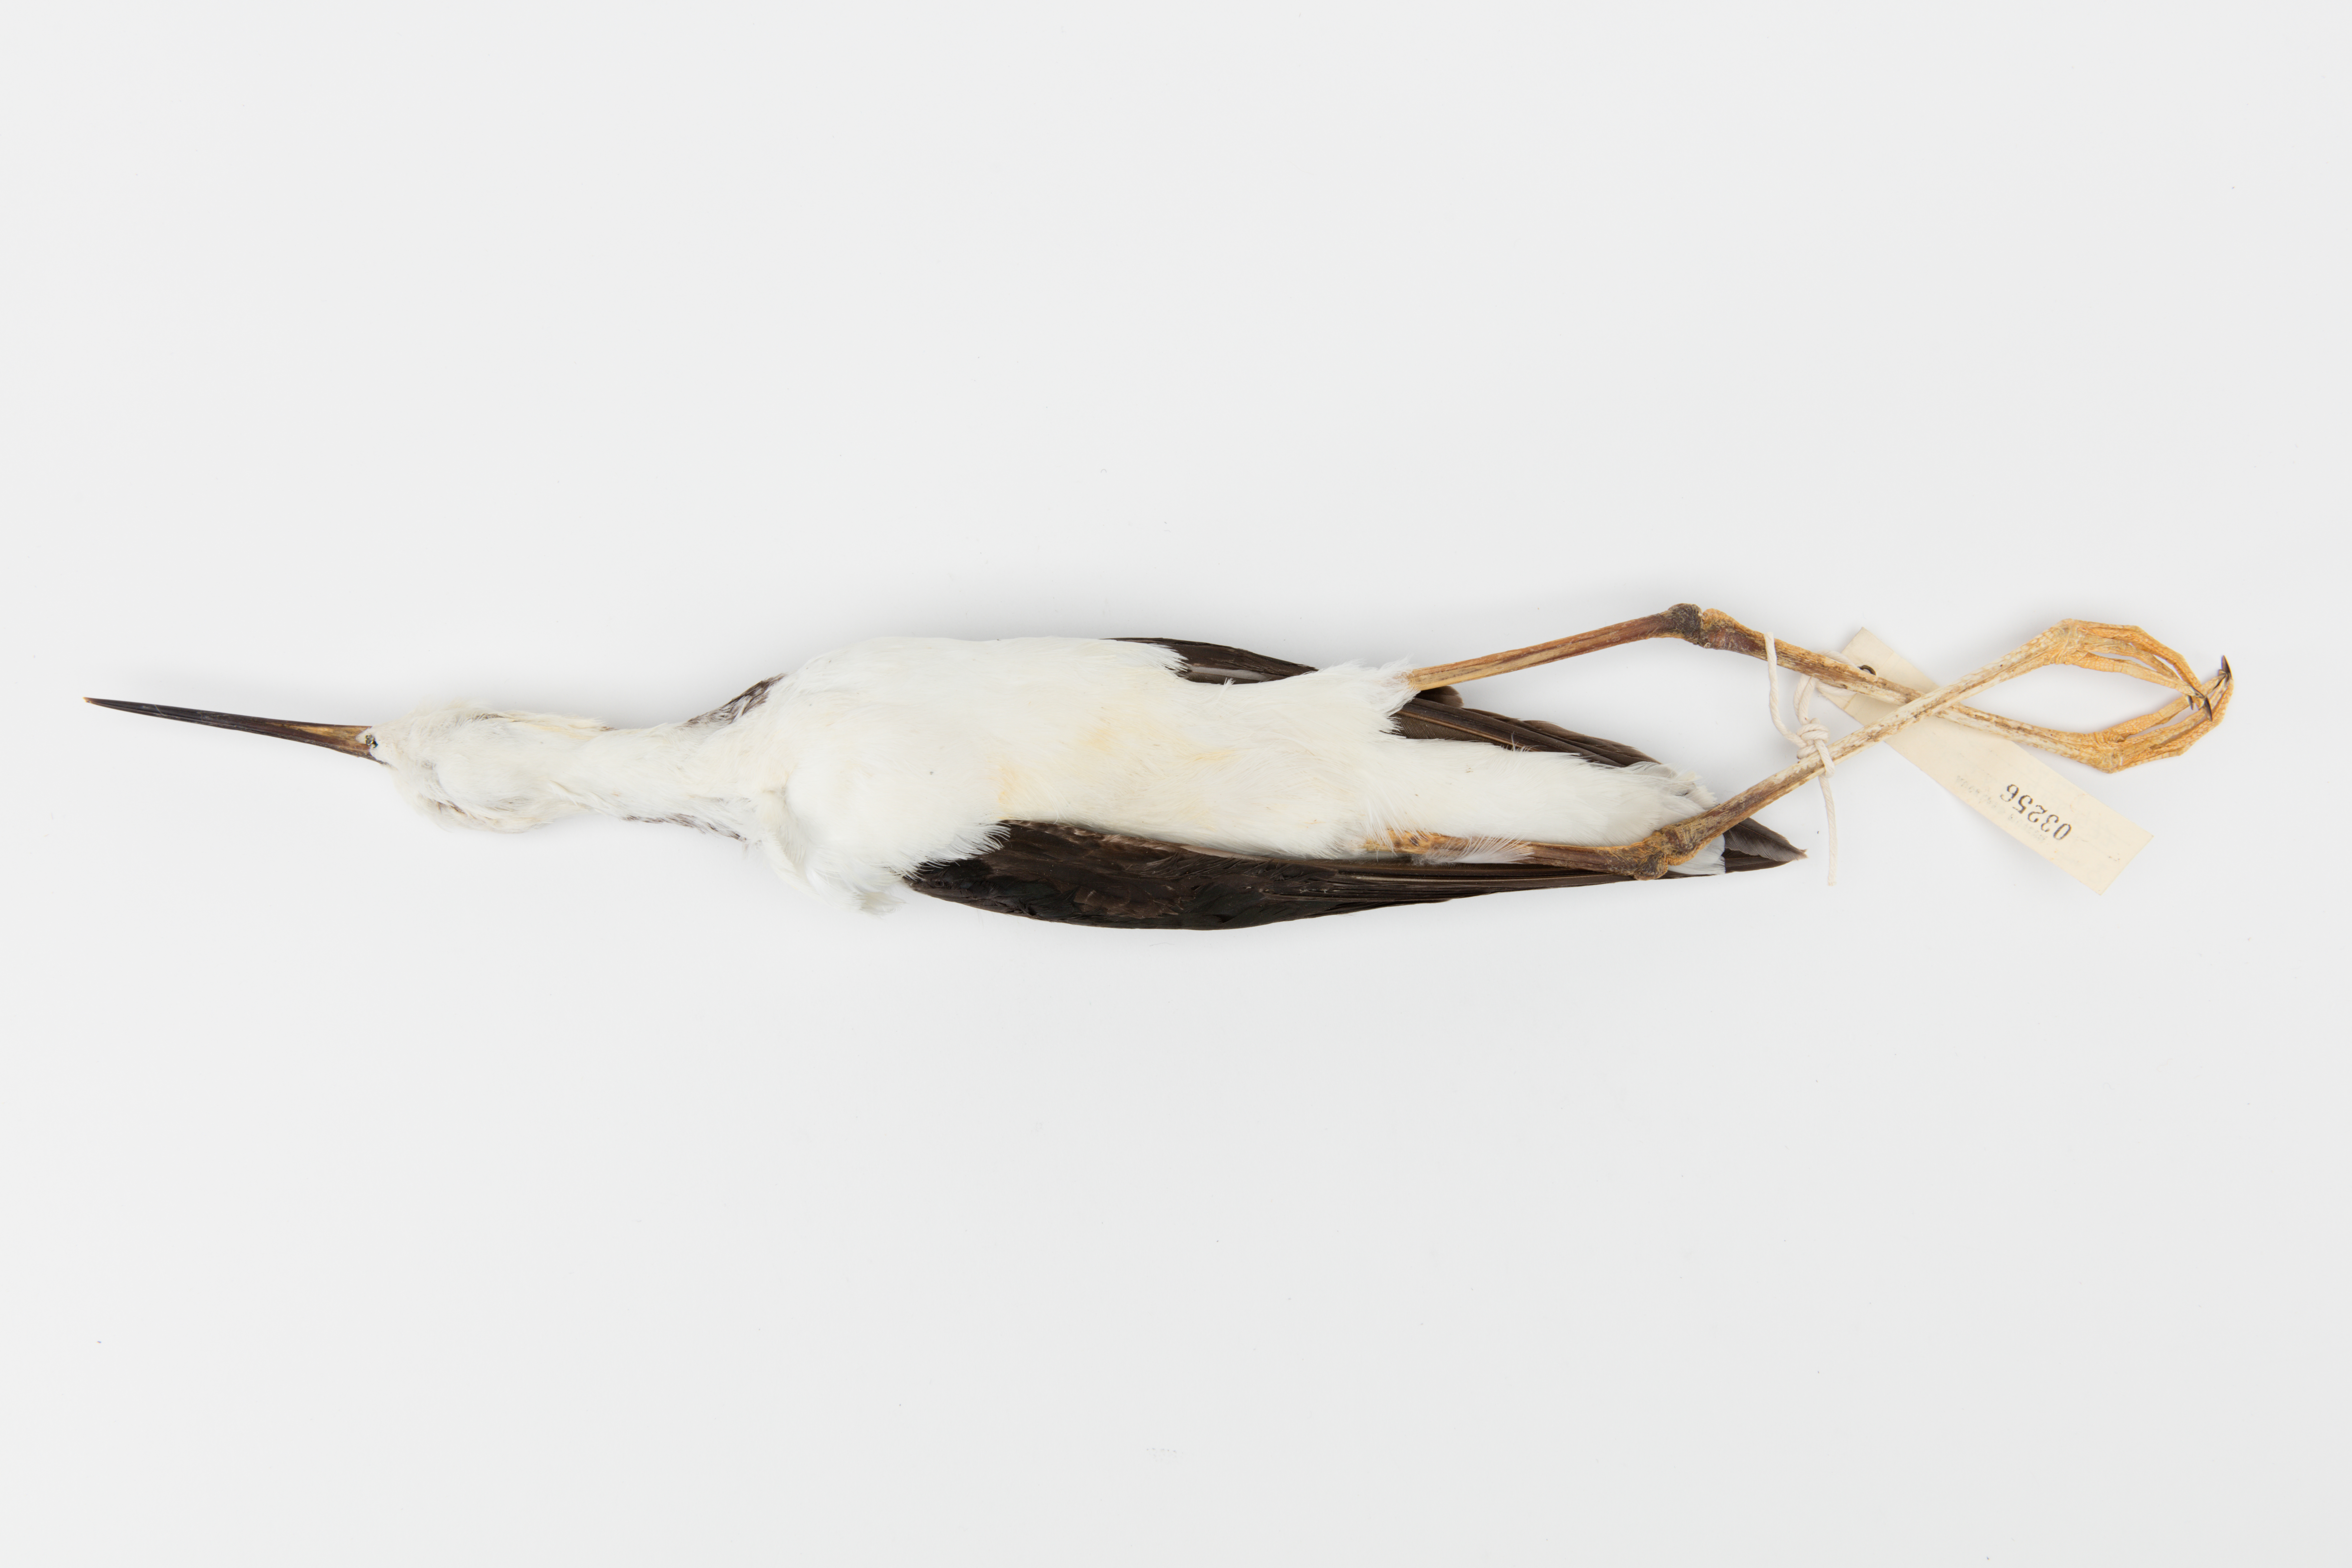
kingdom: Animalia
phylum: Chordata
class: Aves
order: Charadriiformes
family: Recurvirostridae
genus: Himantopus
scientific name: Himantopus himantopus
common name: Black-winged stilt
